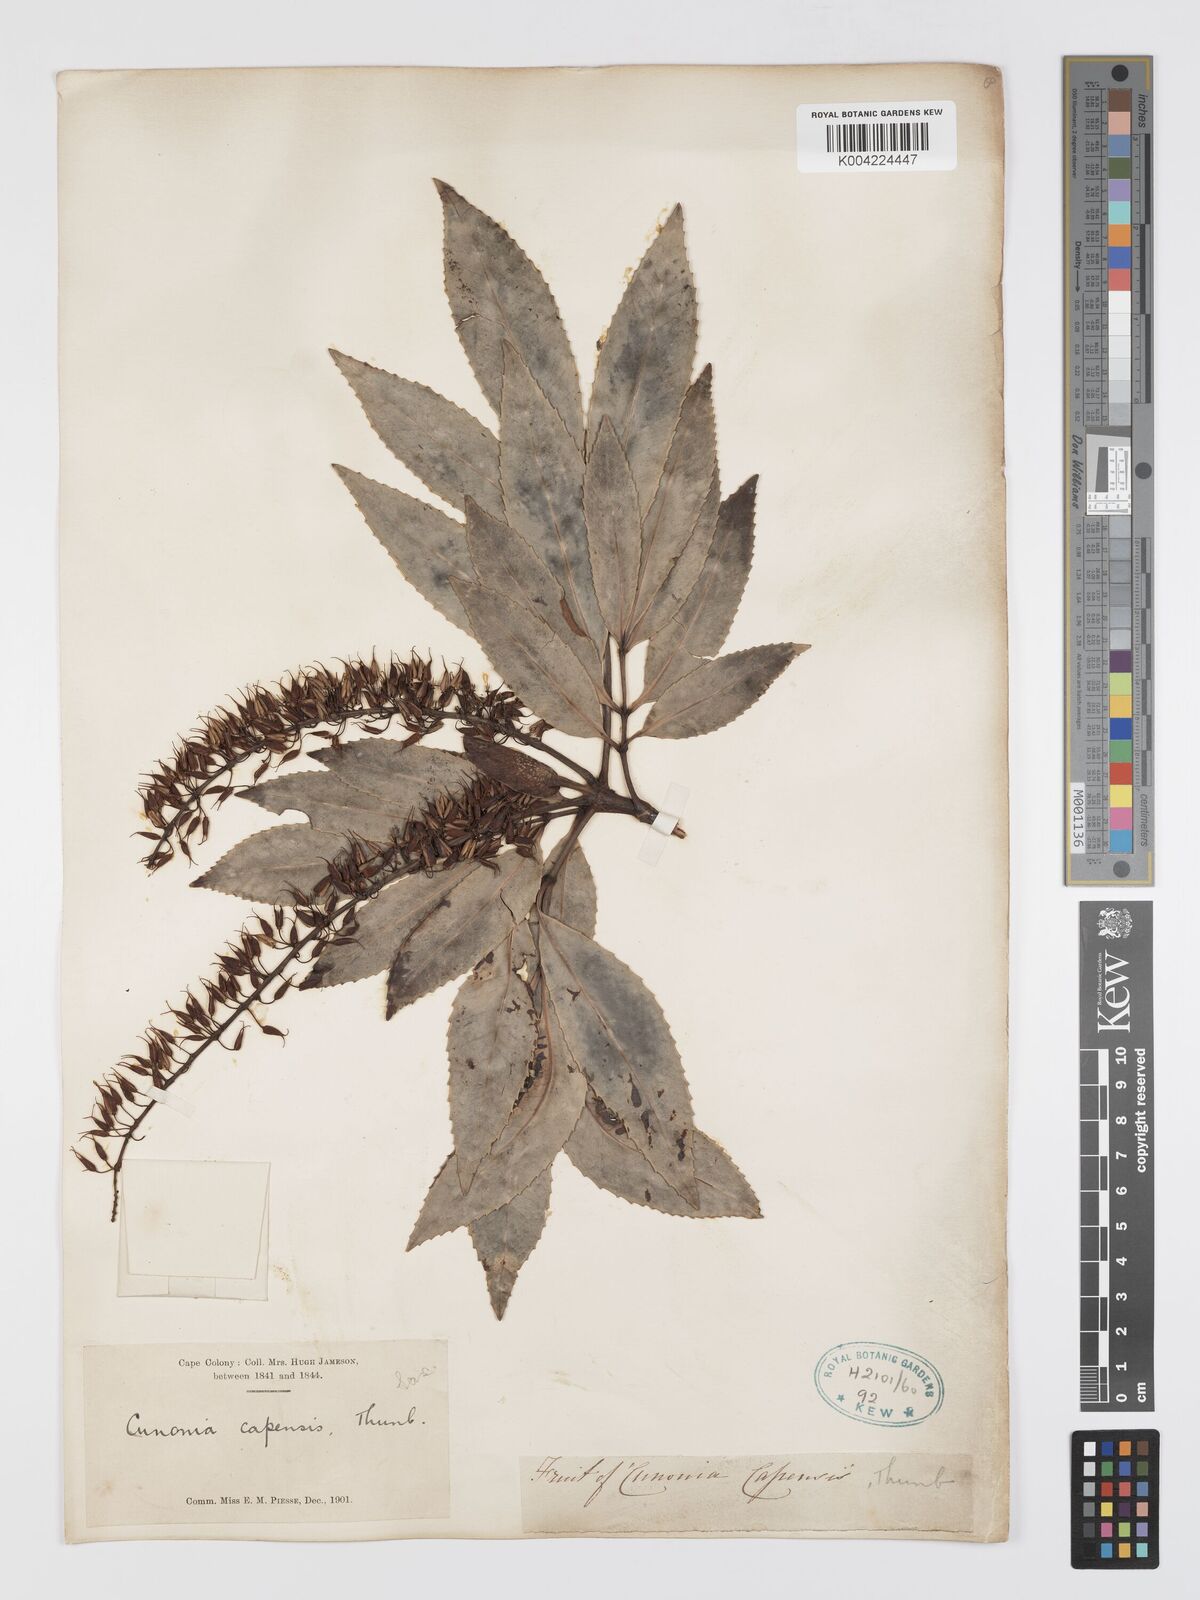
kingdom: Plantae
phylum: Tracheophyta
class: Magnoliopsida
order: Oxalidales
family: Cunoniaceae
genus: Cunonia
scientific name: Cunonia capensis
